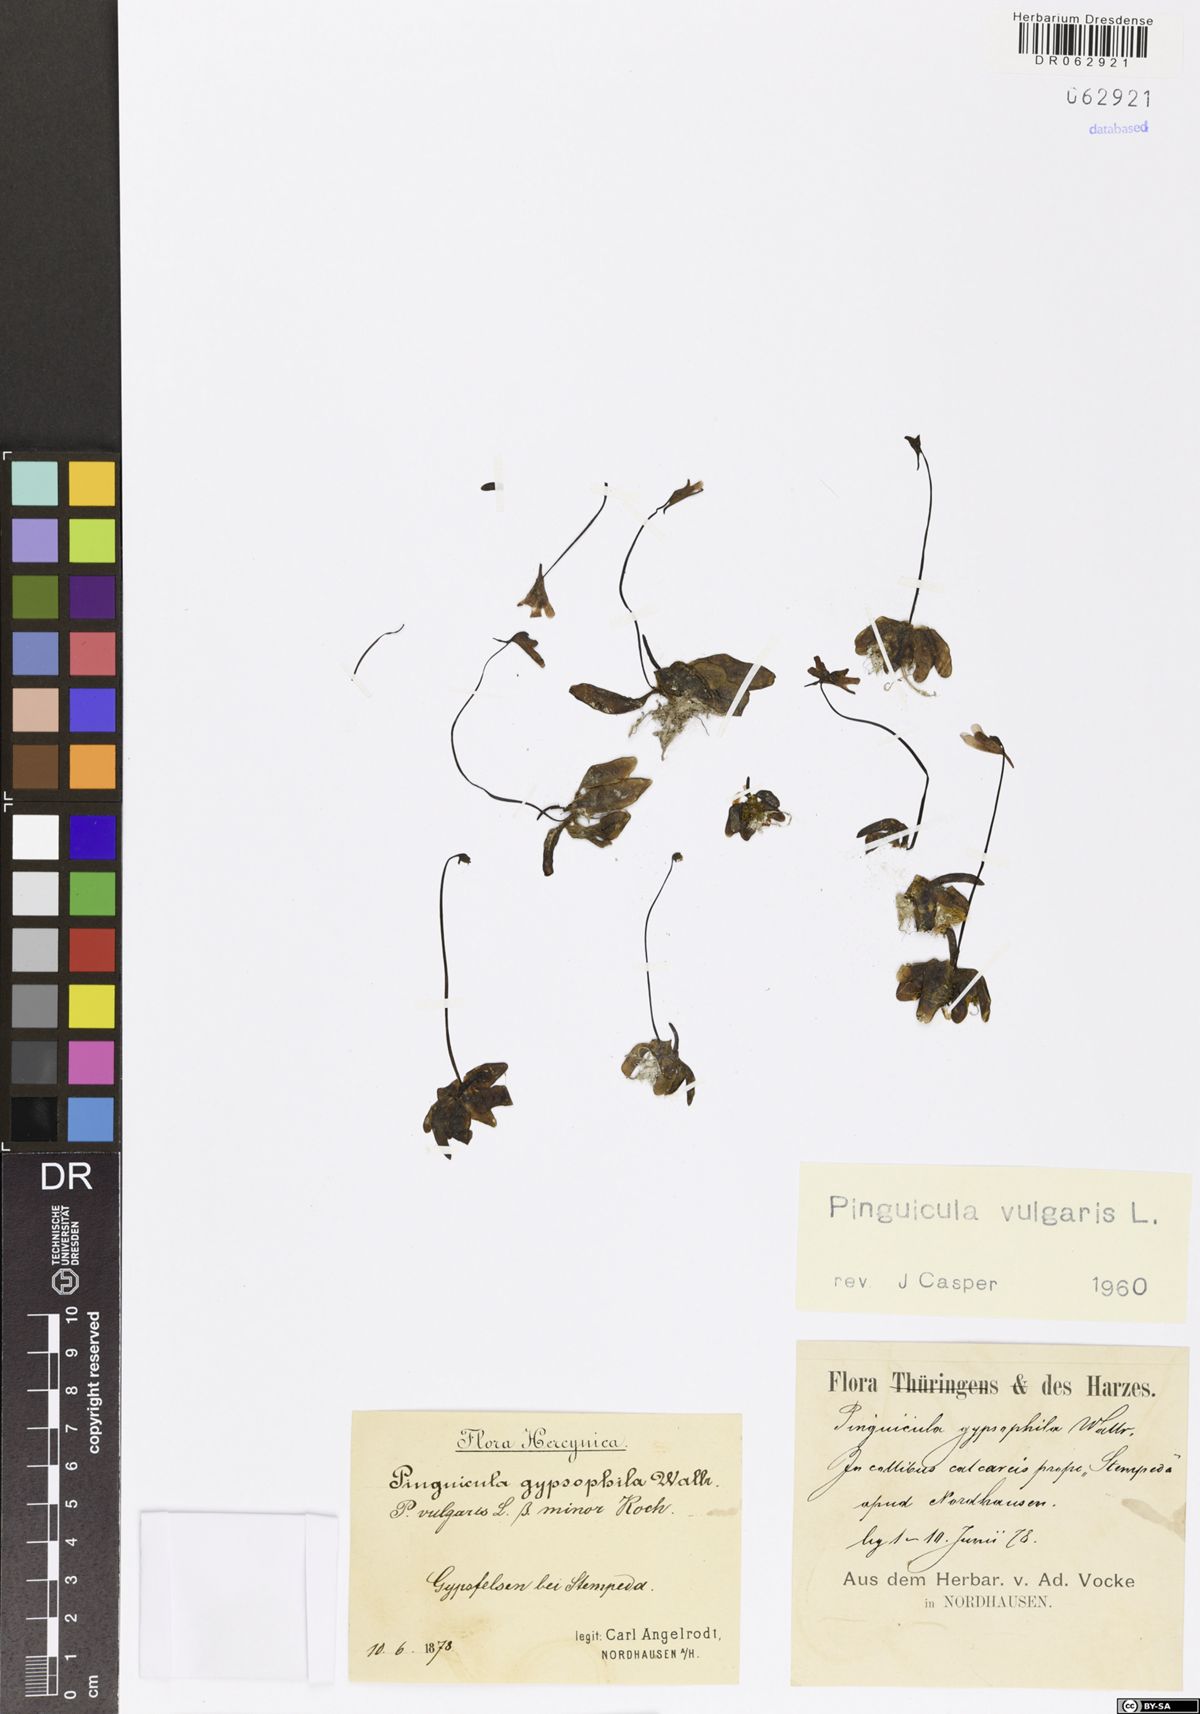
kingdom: Plantae
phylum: Tracheophyta
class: Magnoliopsida
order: Lamiales
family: Lentibulariaceae
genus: Pinguicula
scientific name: Pinguicula vulgaris
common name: Common butterwort
